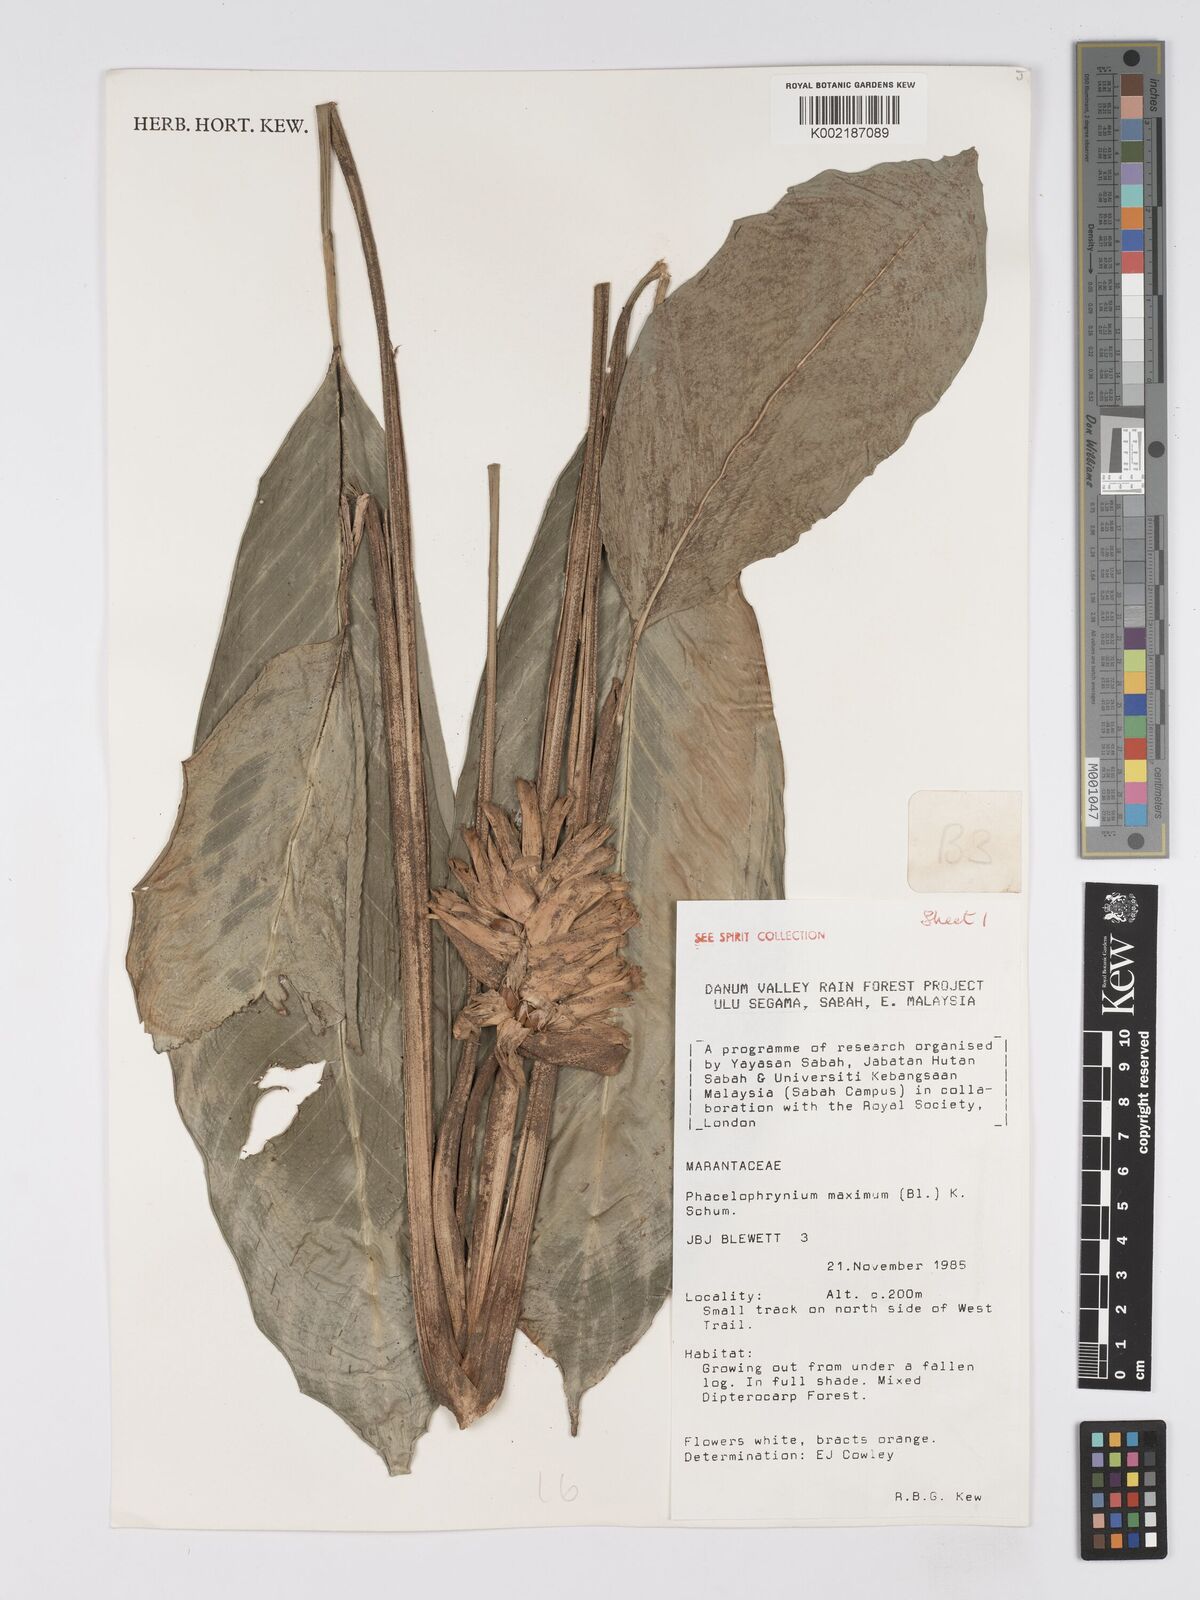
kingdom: Plantae
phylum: Tracheophyta
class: Liliopsida
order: Zingiberales
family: Marantaceae
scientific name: Marantaceae
